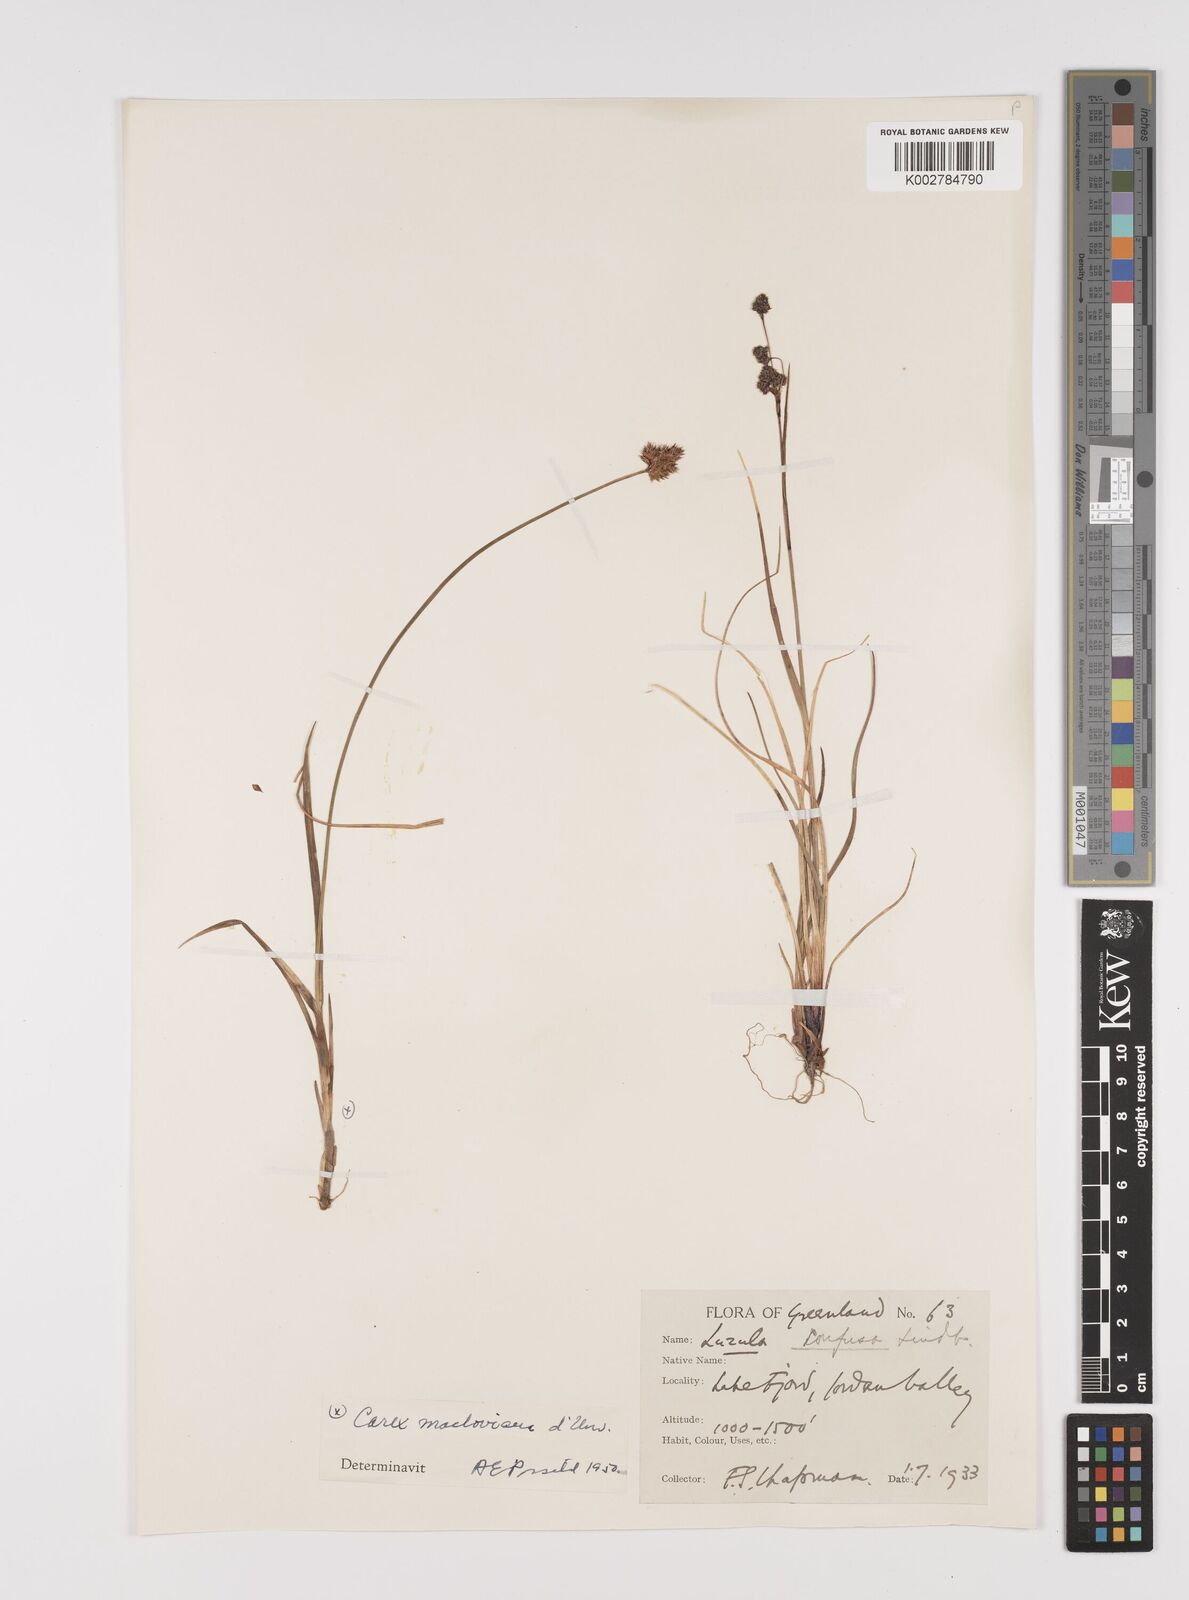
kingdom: Plantae
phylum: Tracheophyta
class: Liliopsida
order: Poales
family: Juncaceae
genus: Luzula
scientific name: Luzula confusa
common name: Northern wood rush
